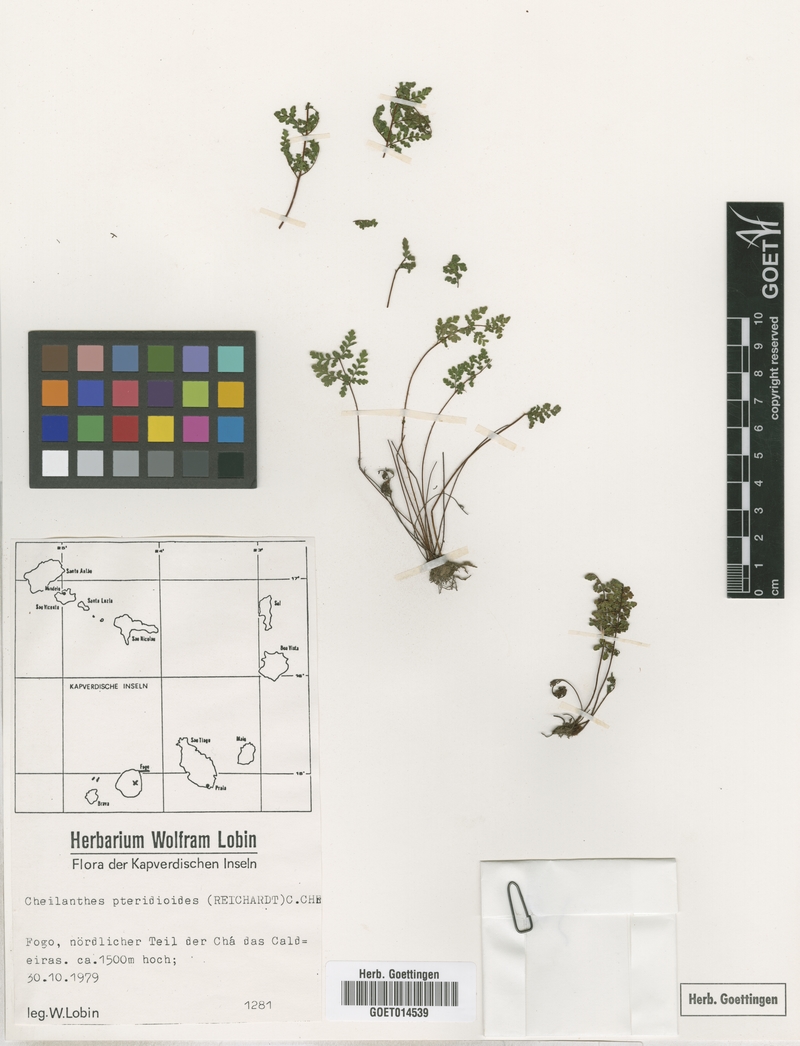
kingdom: Plantae
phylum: Tracheophyta
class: Polypodiopsida
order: Polypodiales
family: Pteridaceae
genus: Oeosporangium
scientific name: Oeosporangium pteridioides
